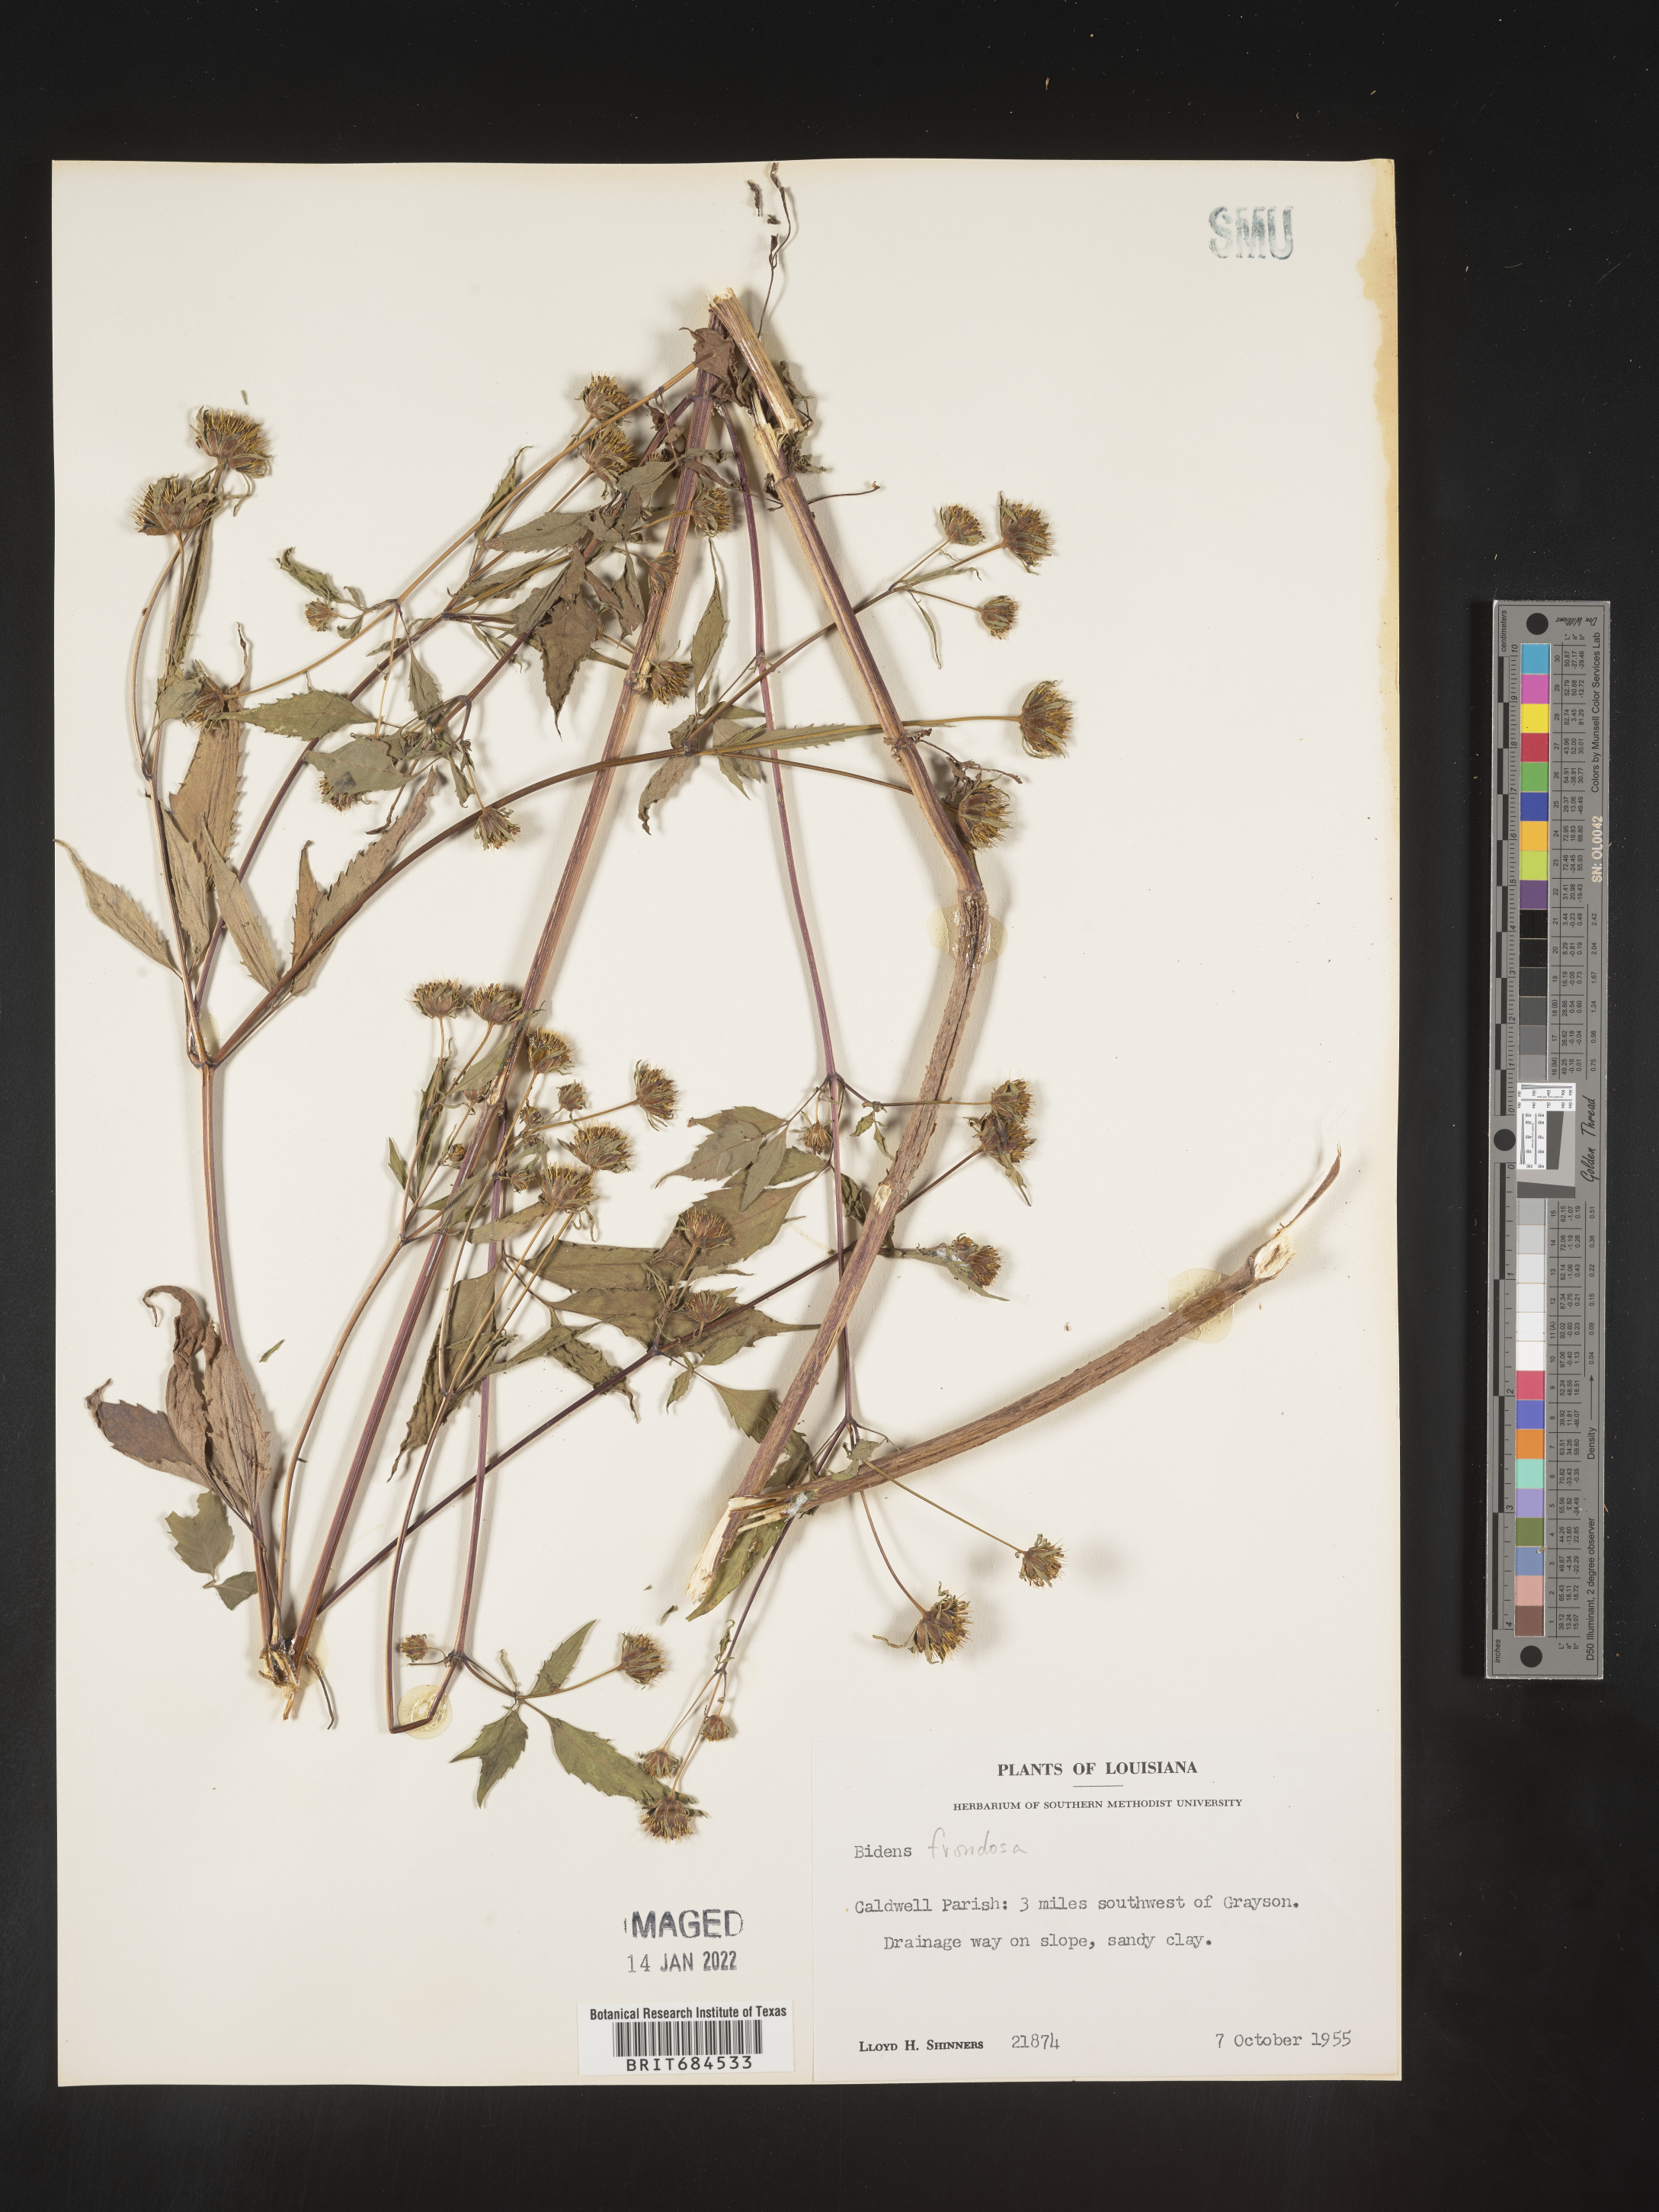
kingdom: Plantae
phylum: Tracheophyta
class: Magnoliopsida
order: Asterales
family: Asteraceae
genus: Bidens
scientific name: Bidens frondosa
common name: Beggarticks
